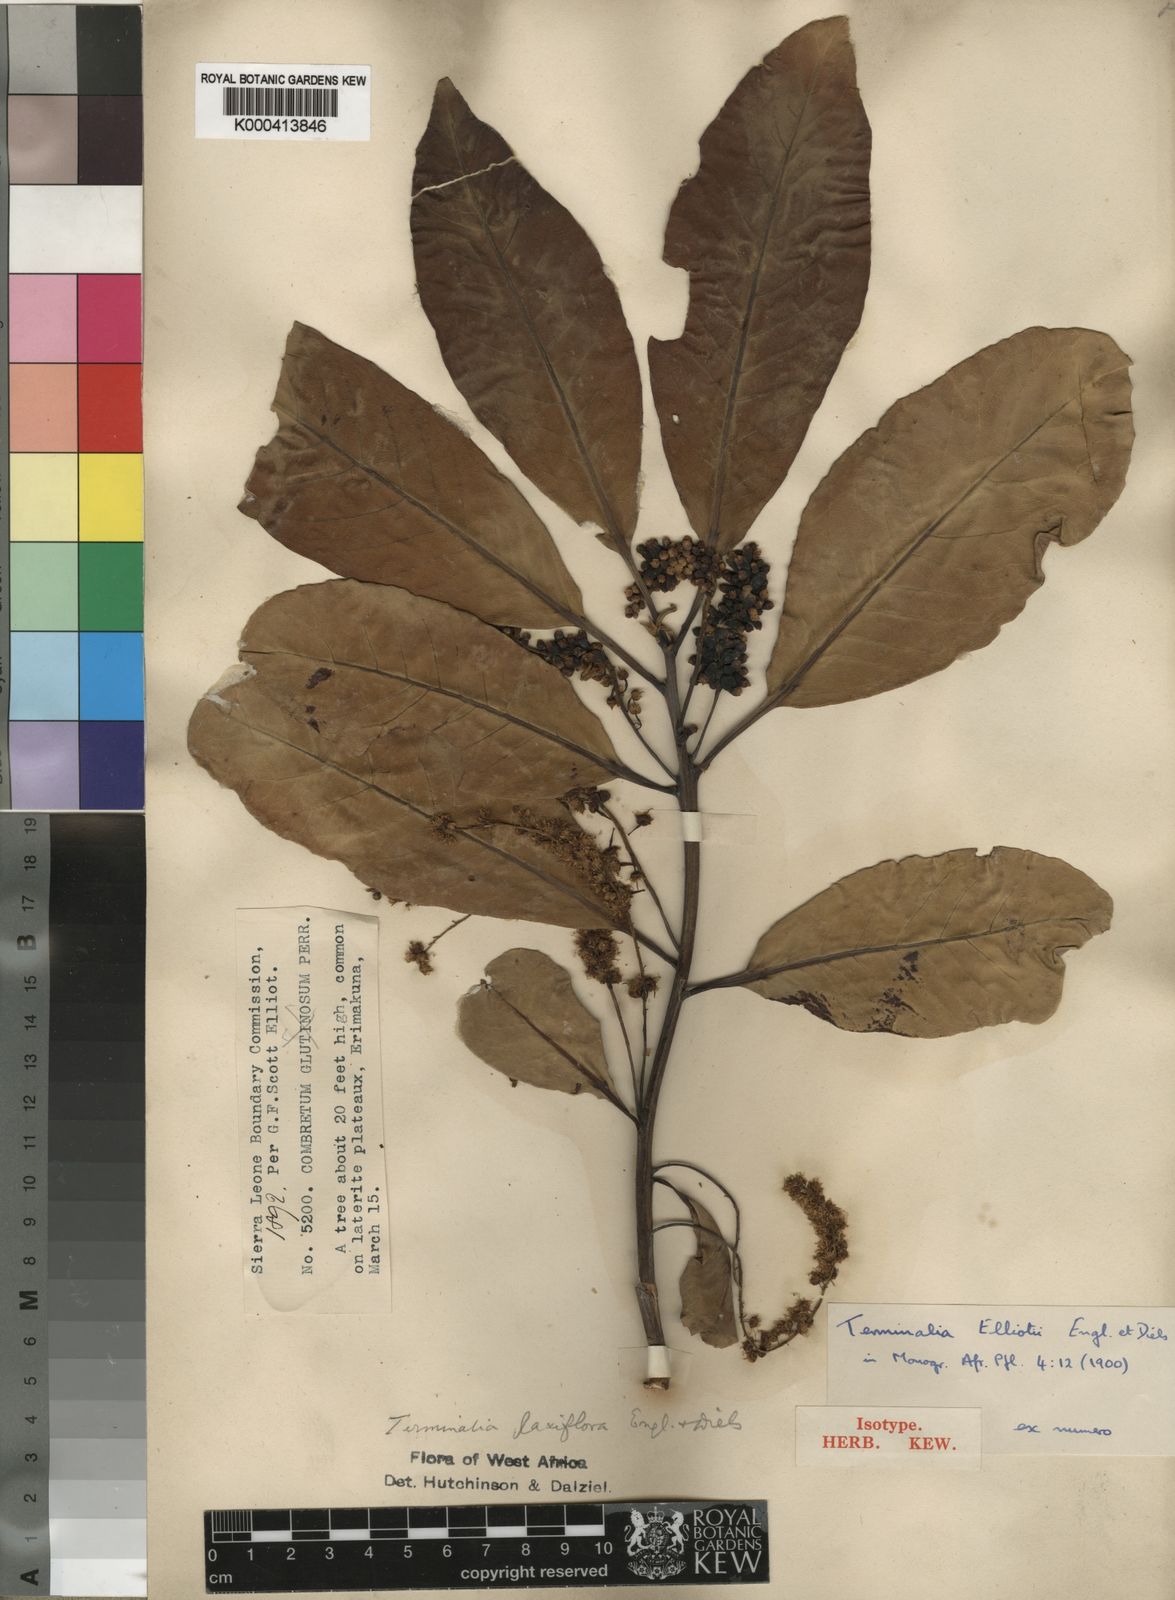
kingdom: Plantae
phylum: Tracheophyta
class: Magnoliopsida
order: Myrtales
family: Combretaceae
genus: Terminalia
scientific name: Terminalia laxiflora
